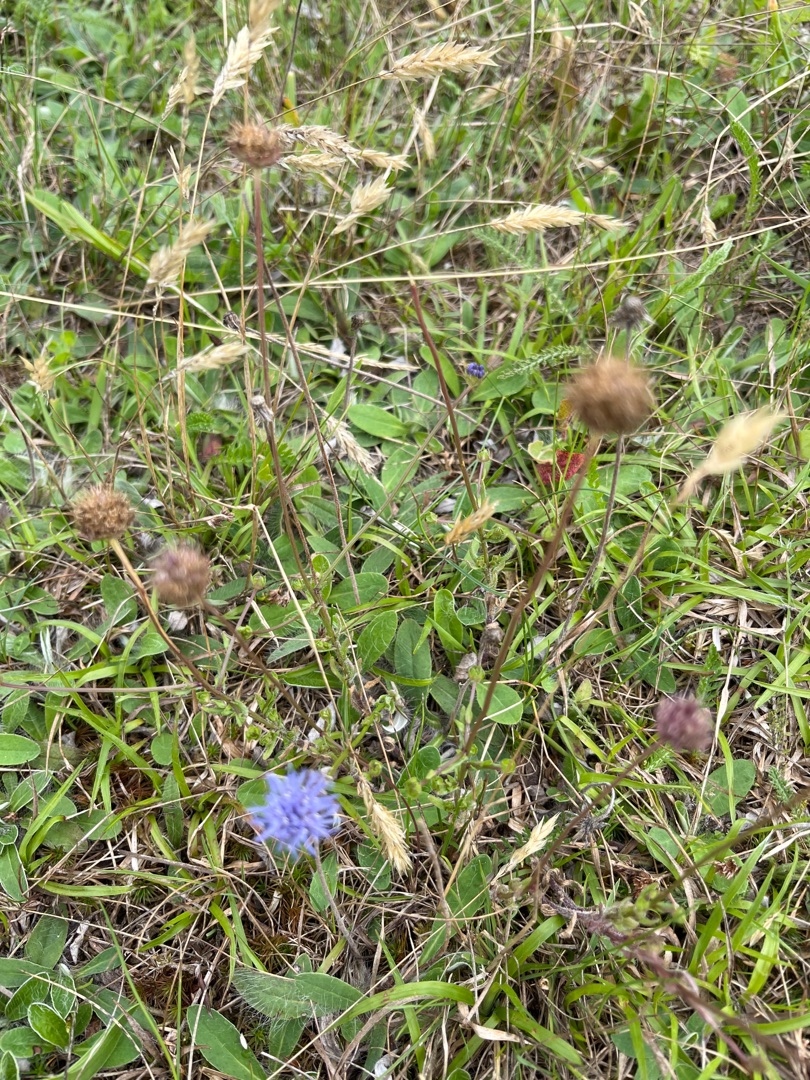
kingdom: Plantae
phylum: Tracheophyta
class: Magnoliopsida
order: Asterales
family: Campanulaceae
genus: Jasione
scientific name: Jasione montana
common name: Blåmunke
